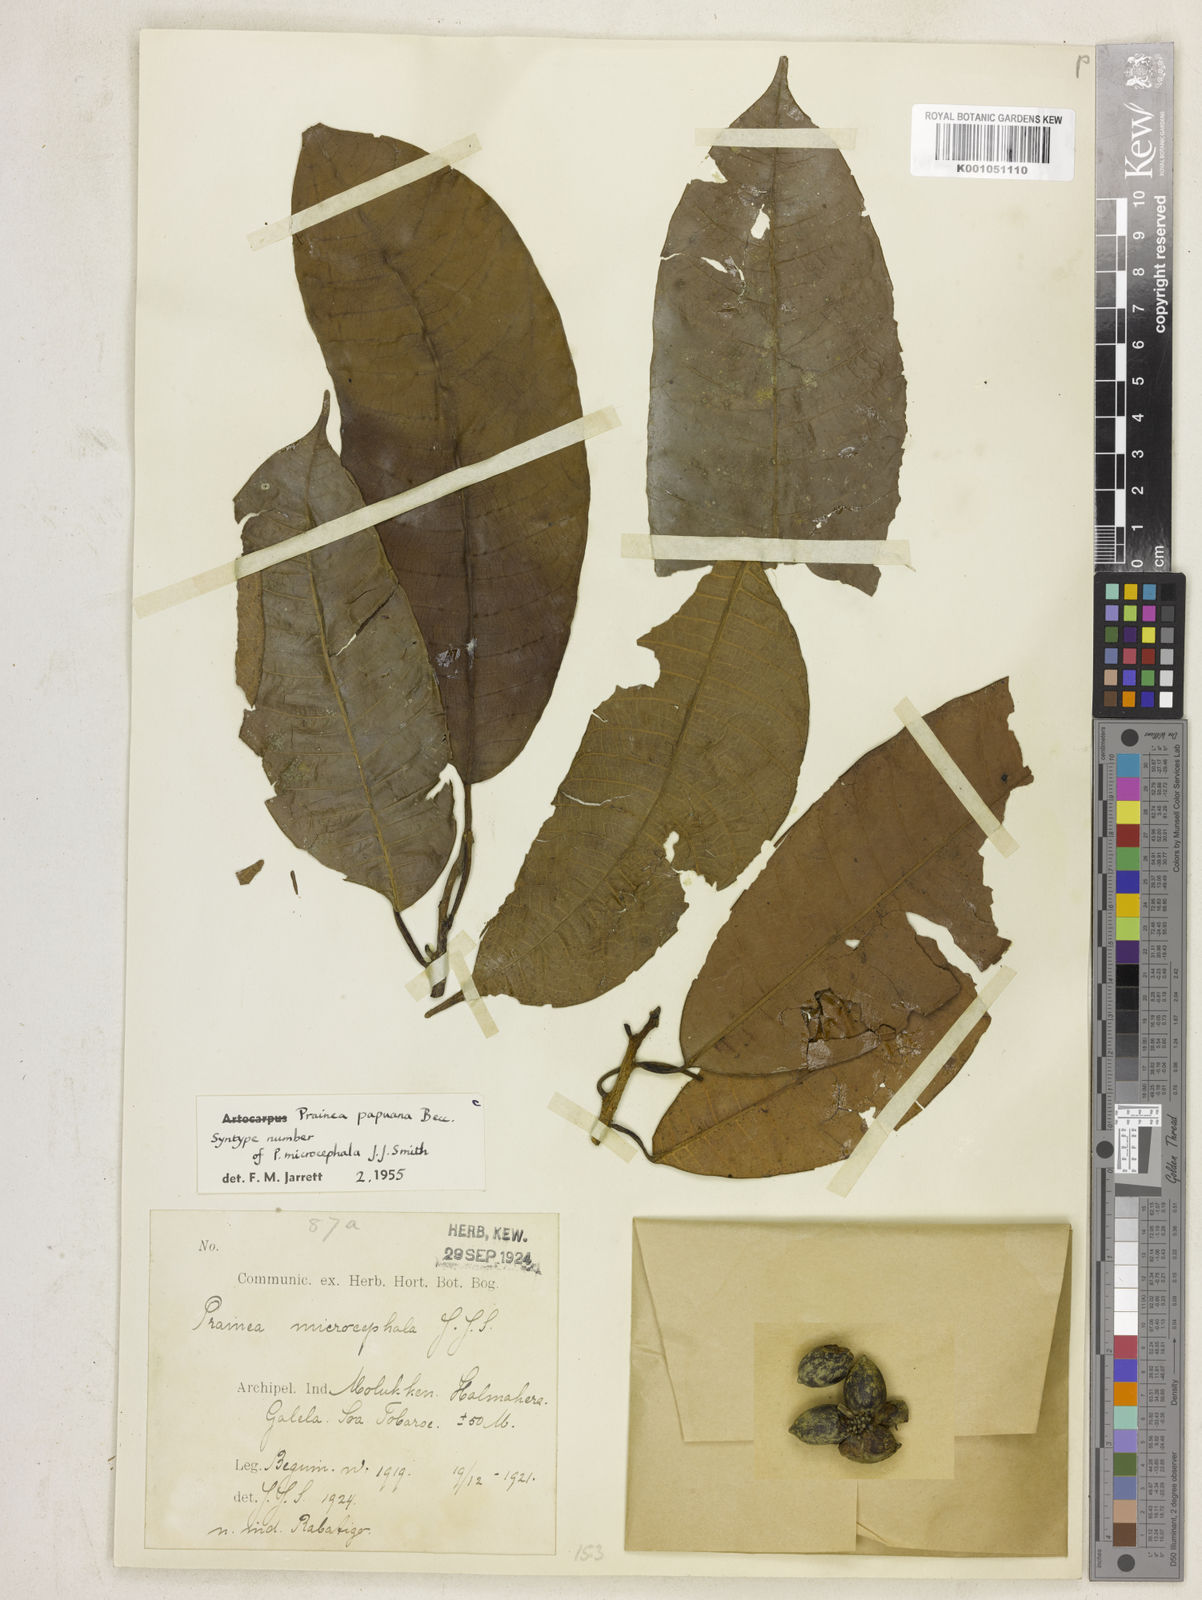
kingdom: Plantae
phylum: Tracheophyta
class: Magnoliopsida
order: Rosales
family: Moraceae
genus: Prainea
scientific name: Prainea limpato
